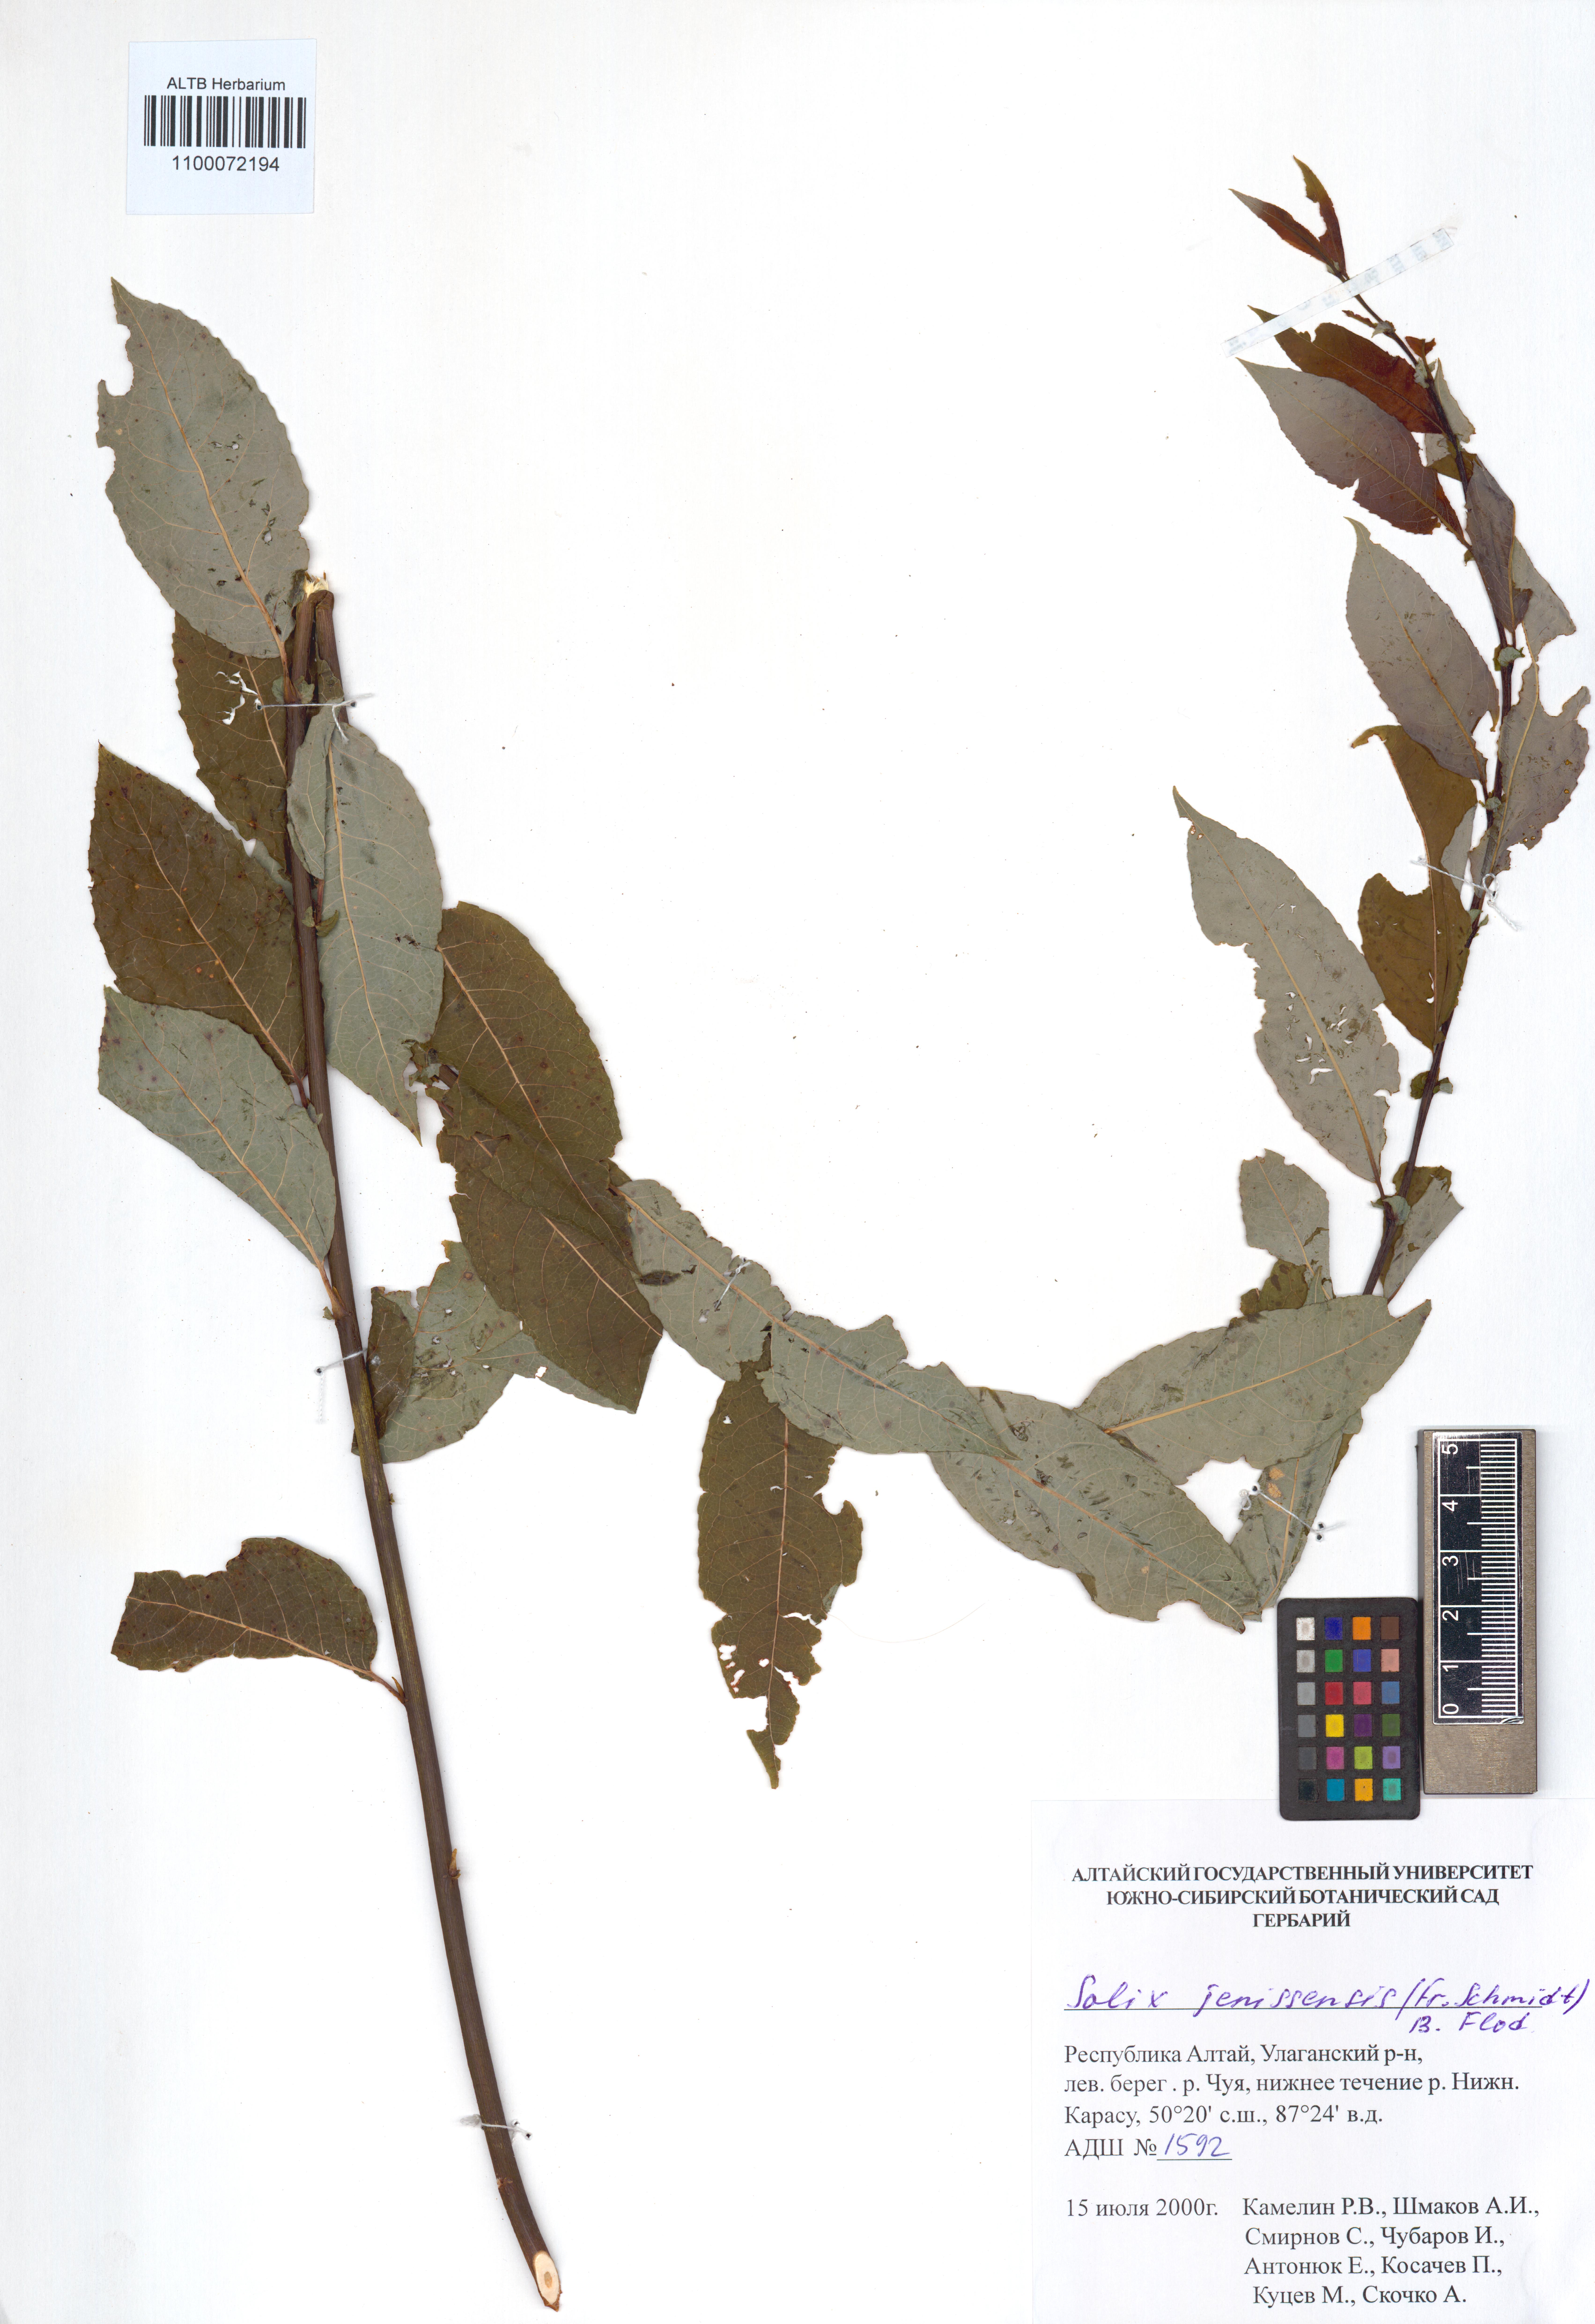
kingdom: Plantae
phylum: Tracheophyta
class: Magnoliopsida
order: Malpighiales
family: Salicaceae
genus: Salix
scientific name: Salix jenisseensis
